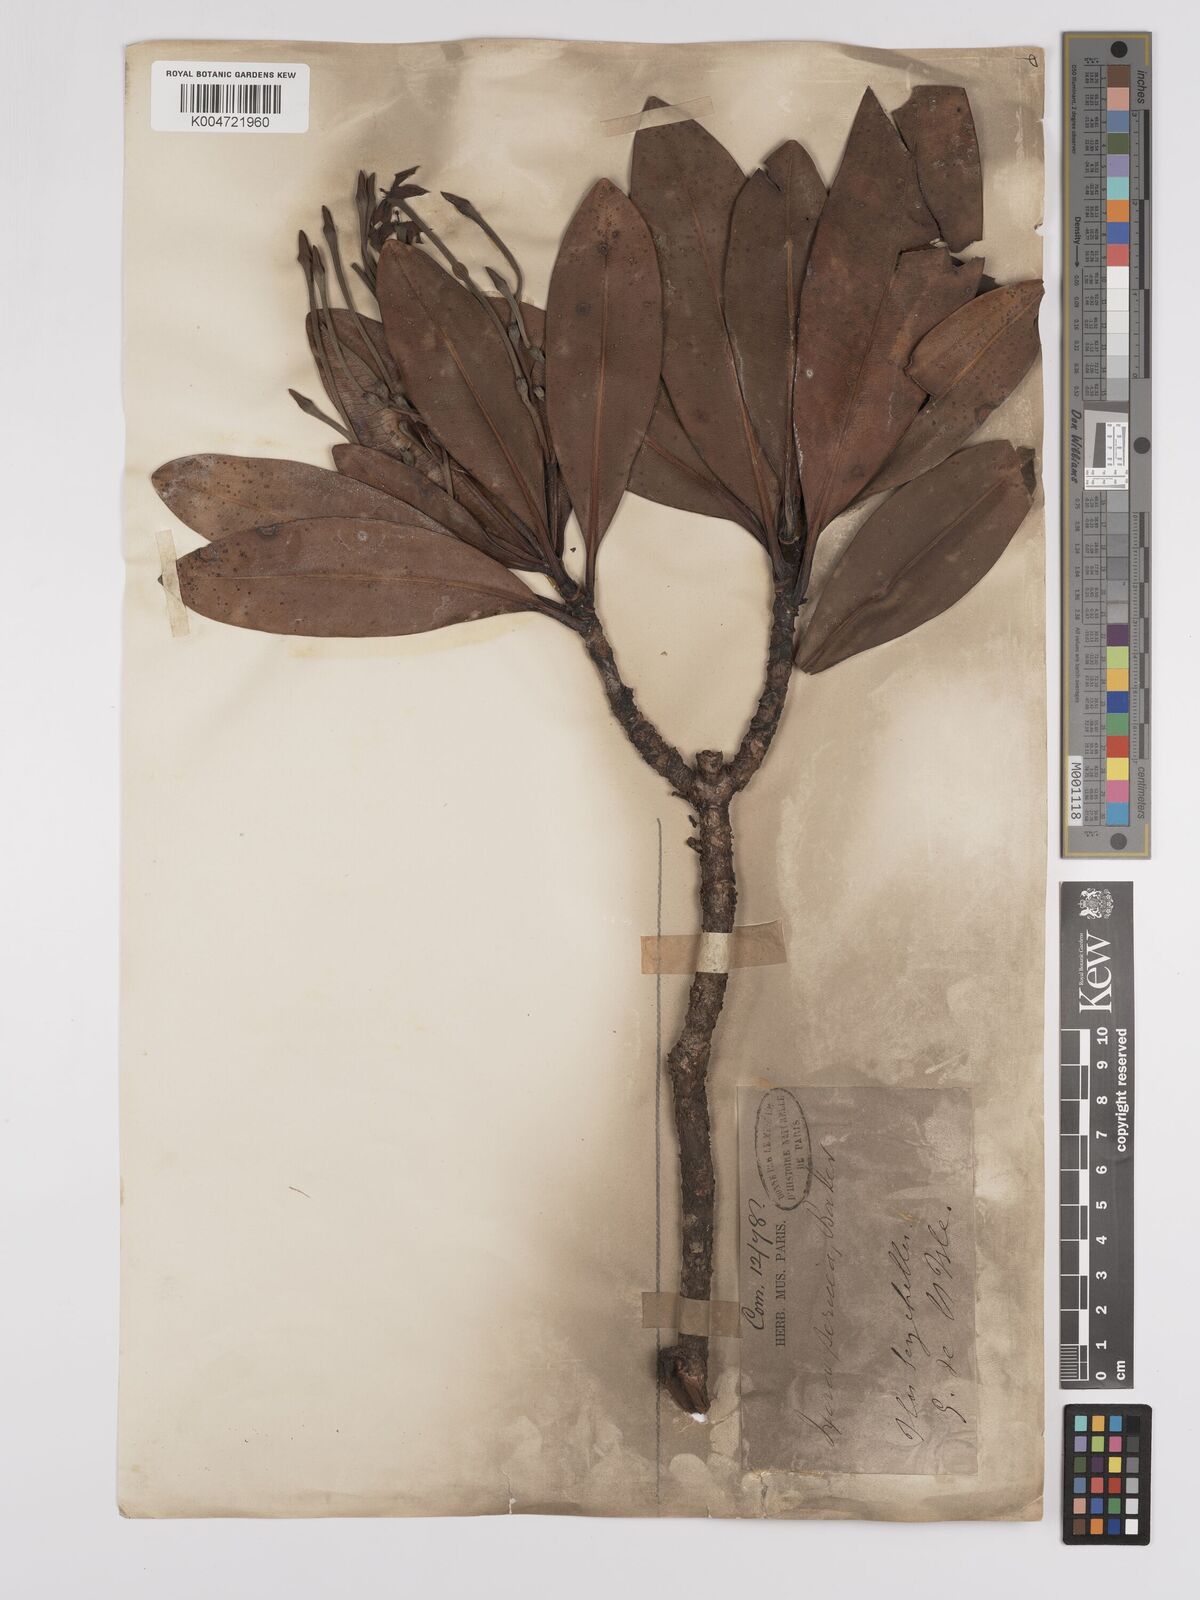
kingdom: Plantae
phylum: Tracheophyta
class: Magnoliopsida
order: Gentianales
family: Rubiaceae
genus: Glionnetia
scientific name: Glionnetia sericea
